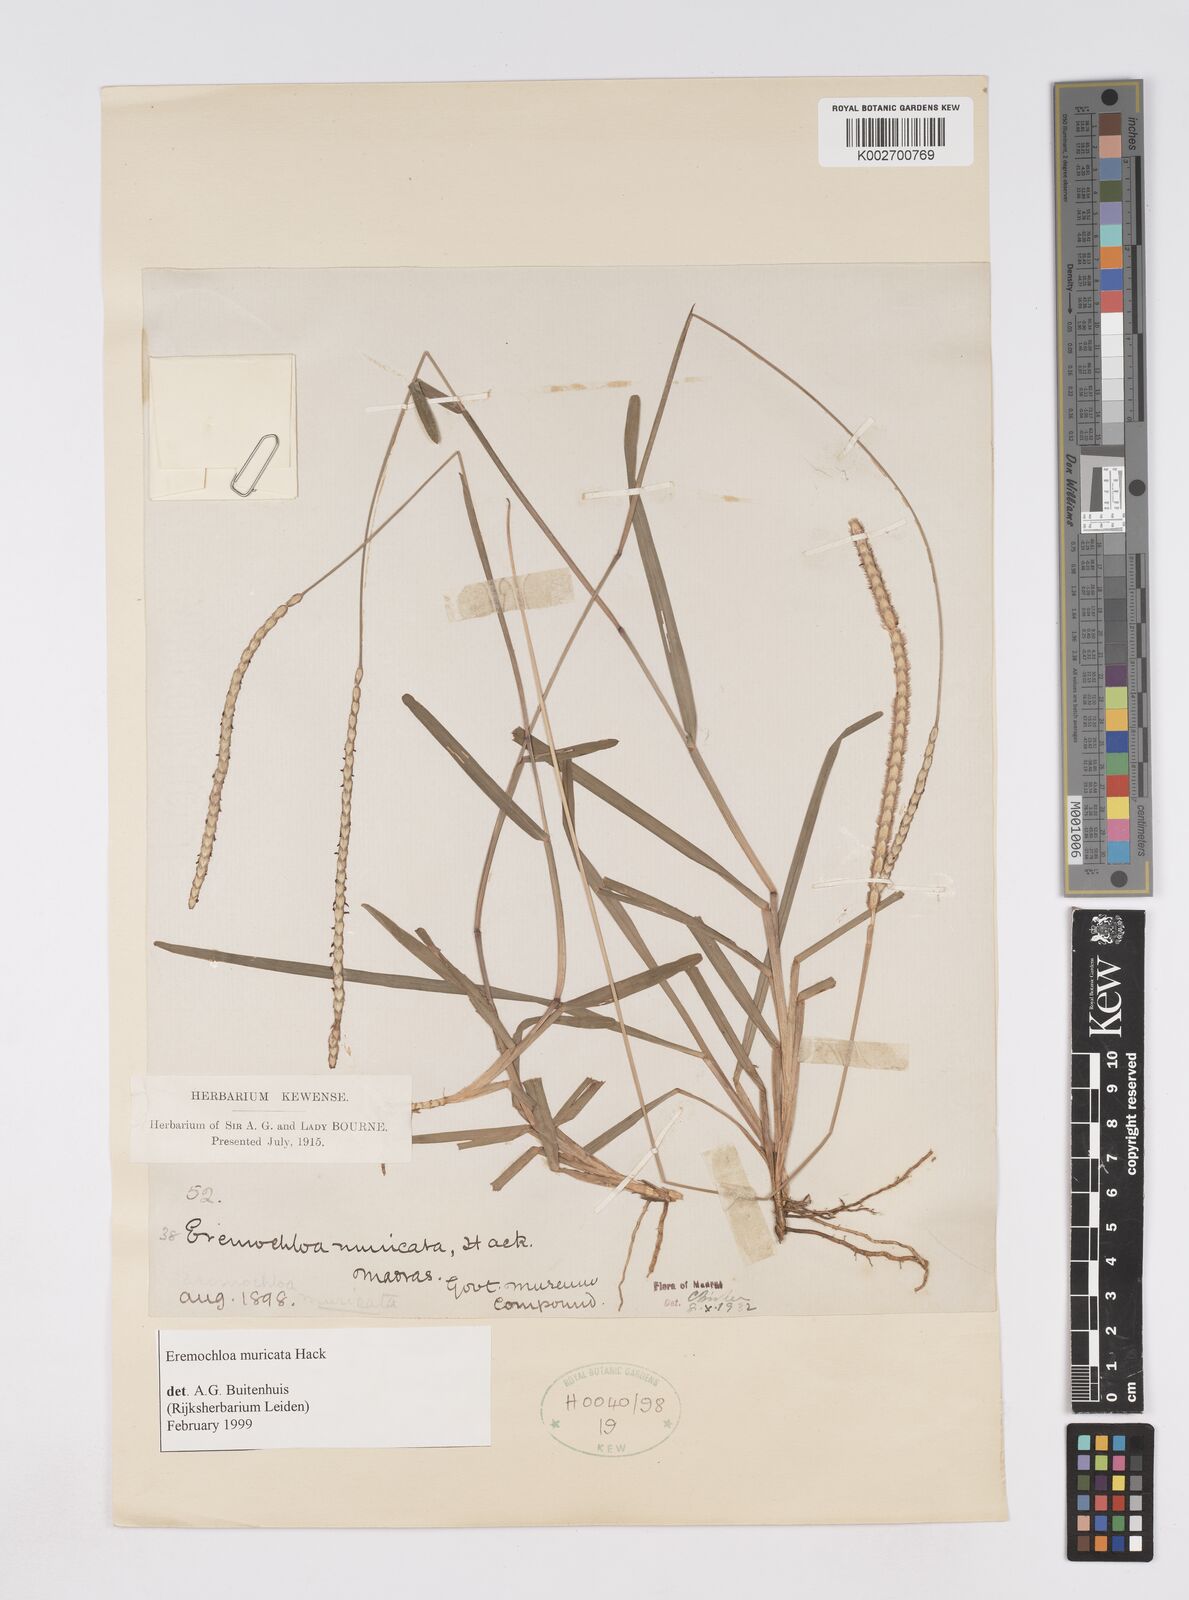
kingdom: Plantae
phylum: Tracheophyta
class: Liliopsida
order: Poales
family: Poaceae
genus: Eremochloa
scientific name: Eremochloa muricata
